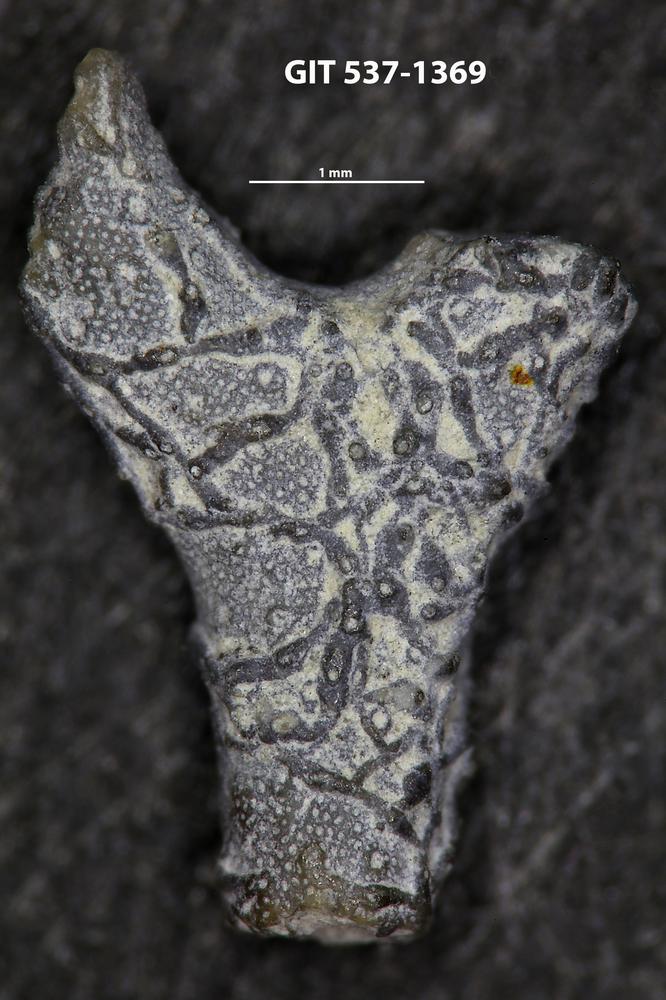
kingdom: Animalia
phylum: Bryozoa
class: Stenolaemata
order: Cyclostomatida
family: Corynotrypidae
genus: Corynotrypa
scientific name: Corynotrypa delicatula
